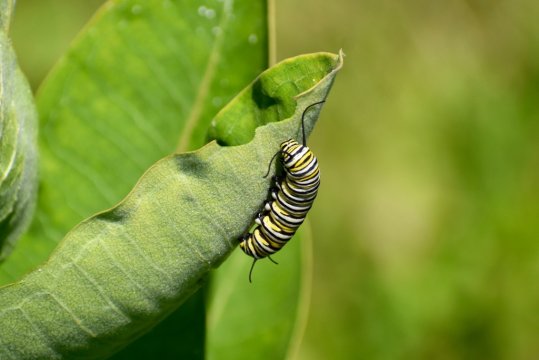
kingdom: Animalia
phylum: Arthropoda
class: Insecta
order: Lepidoptera
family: Nymphalidae
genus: Danaus
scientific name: Danaus plexippus
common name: Monarch
